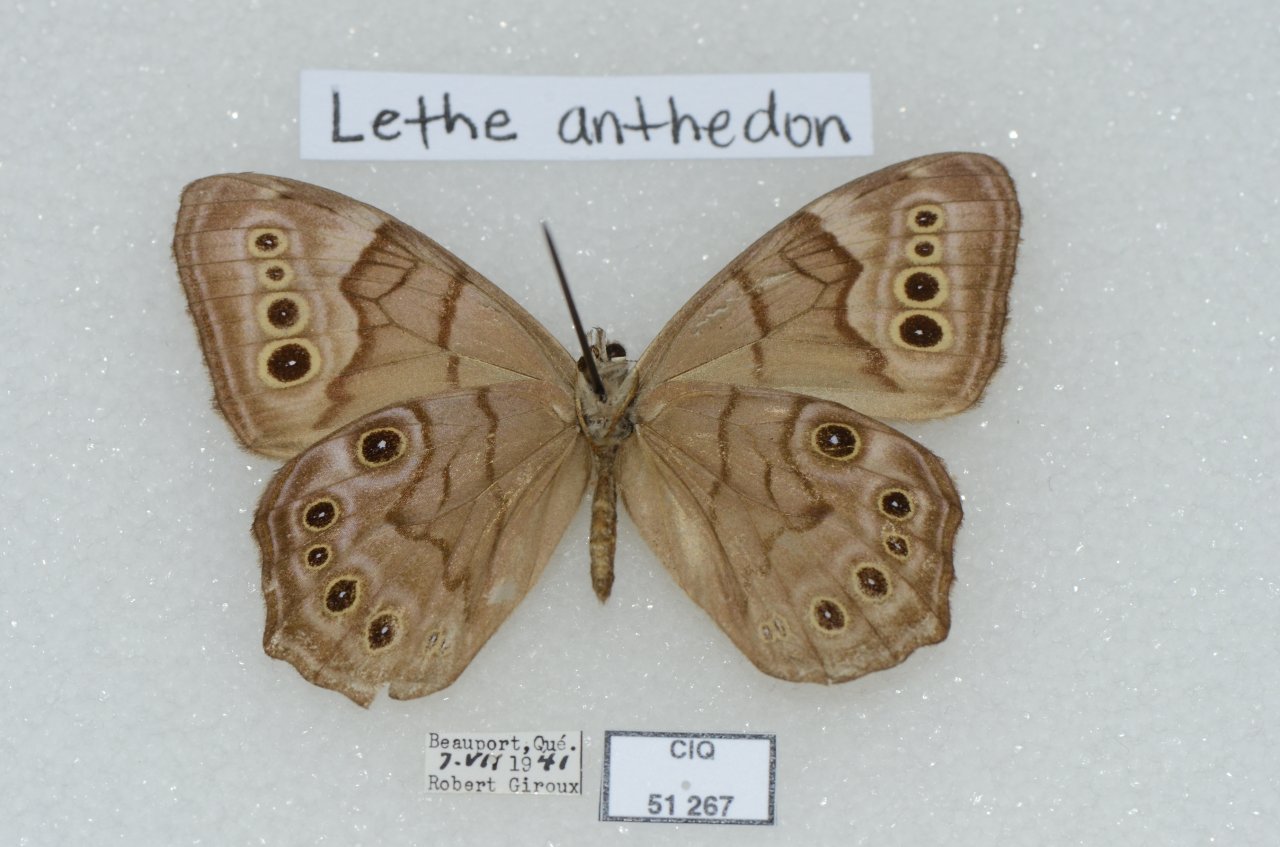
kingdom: Animalia
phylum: Arthropoda
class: Insecta
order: Lepidoptera
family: Nymphalidae
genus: Lethe
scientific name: Lethe anthedon
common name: Northern Pearly-Eye
